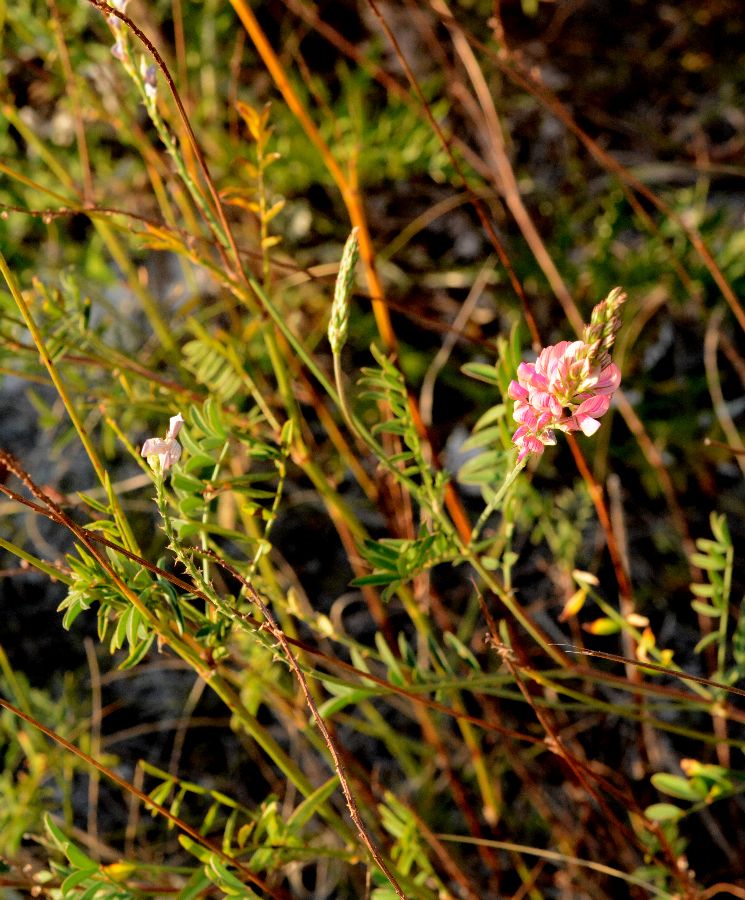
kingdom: Plantae
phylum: Tracheophyta
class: Magnoliopsida
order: Fabales
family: Fabaceae
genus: Onobrychis
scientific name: Onobrychis viciifolia
